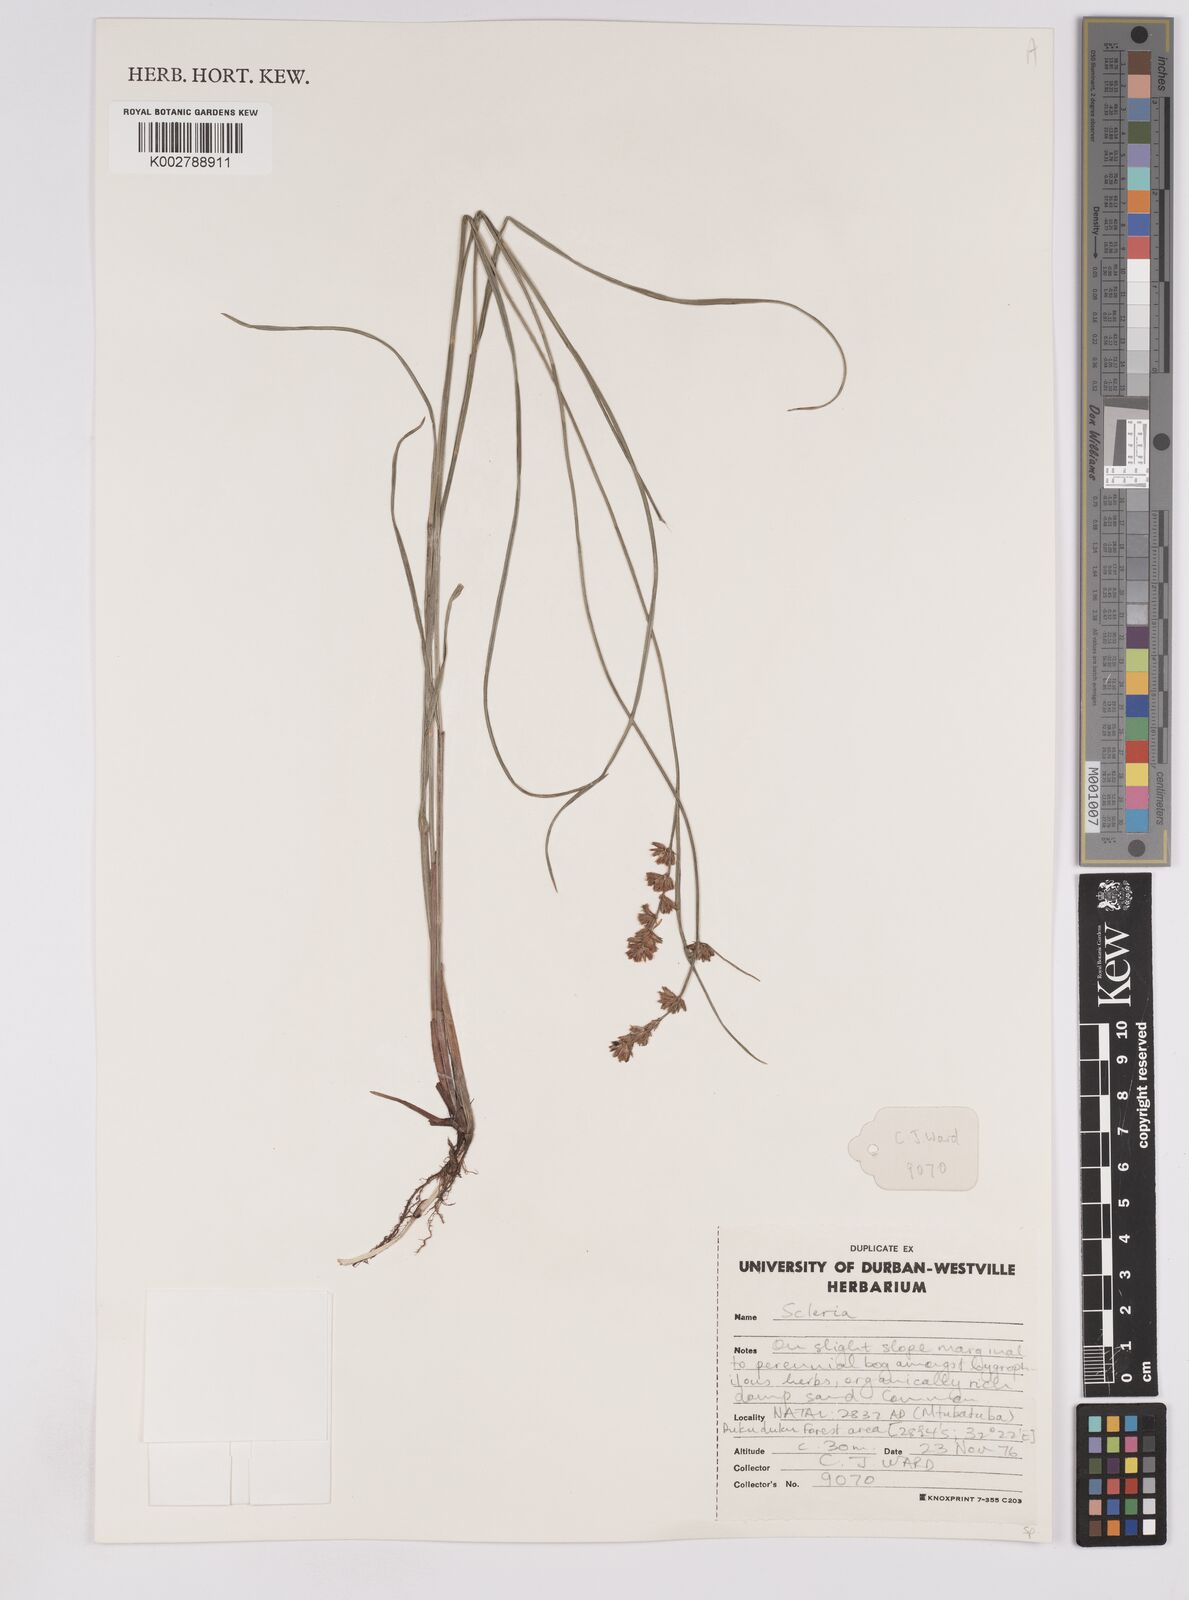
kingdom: Plantae
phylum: Tracheophyta
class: Liliopsida
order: Poales
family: Cyperaceae
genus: Scleria
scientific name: Scleria sobolifera
